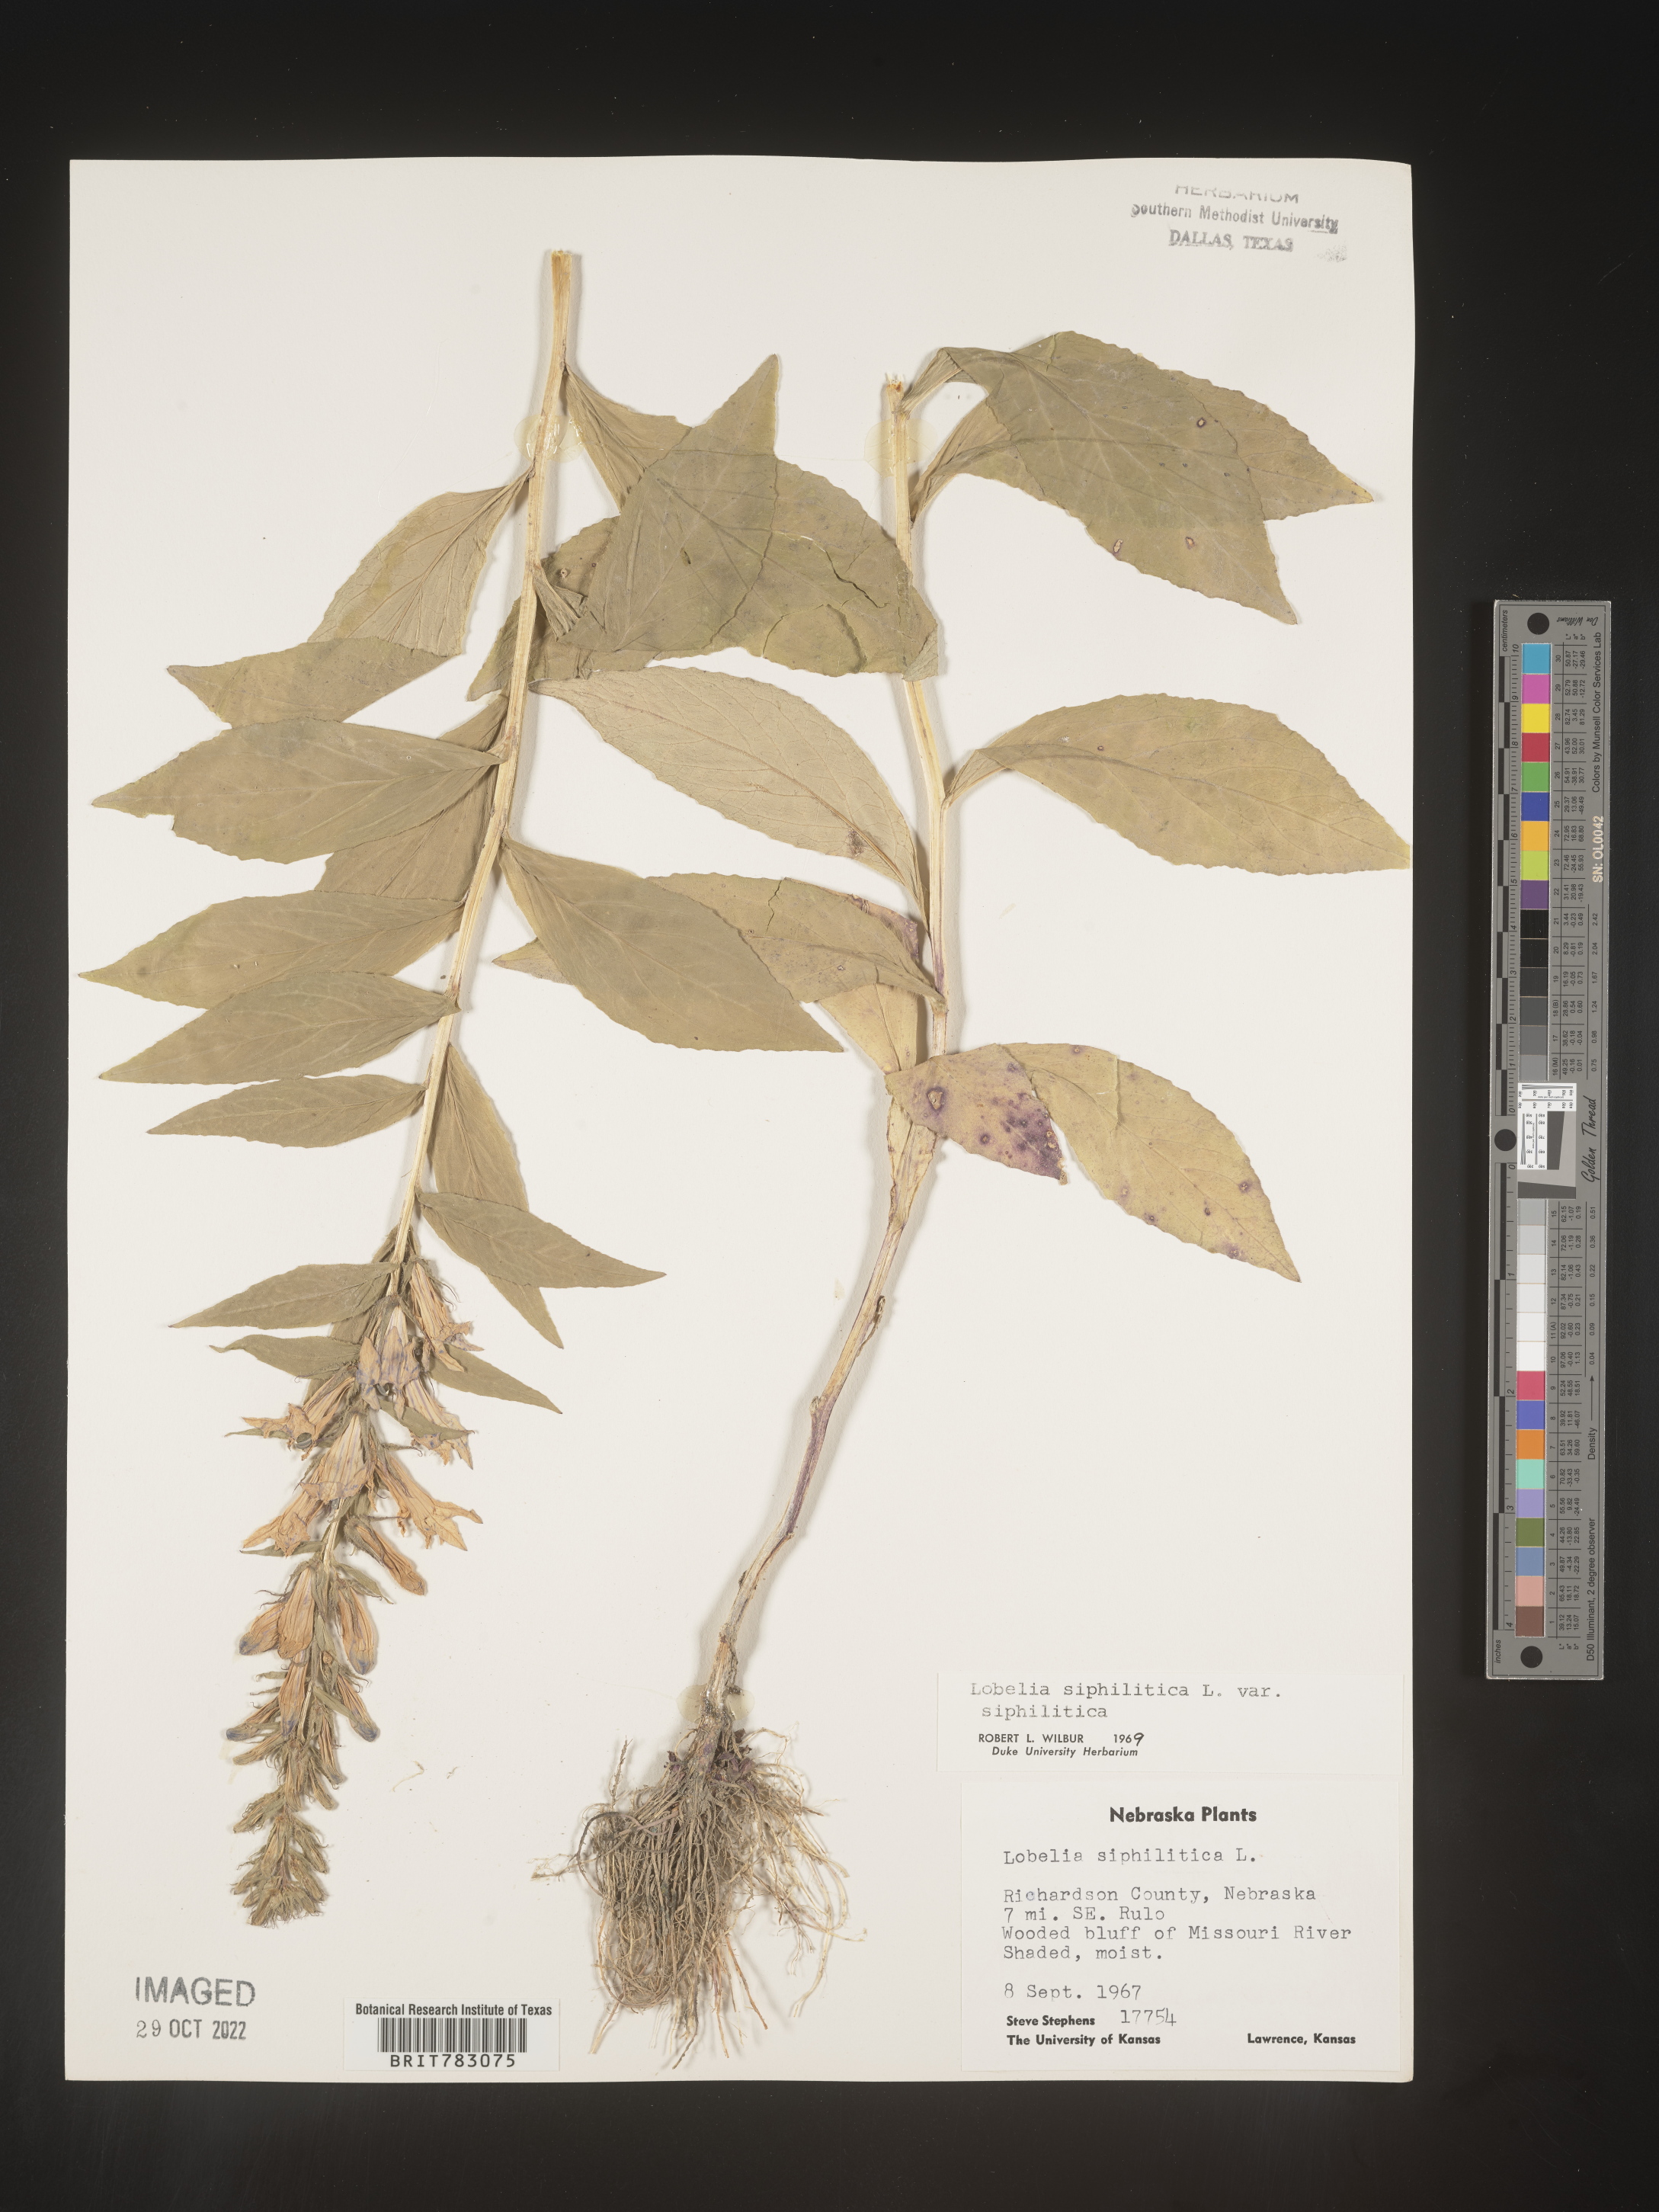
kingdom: Plantae
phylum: Tracheophyta
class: Magnoliopsida
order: Asterales
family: Campanulaceae
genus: Lobelia
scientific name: Lobelia siphilitica
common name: Great lobelia
